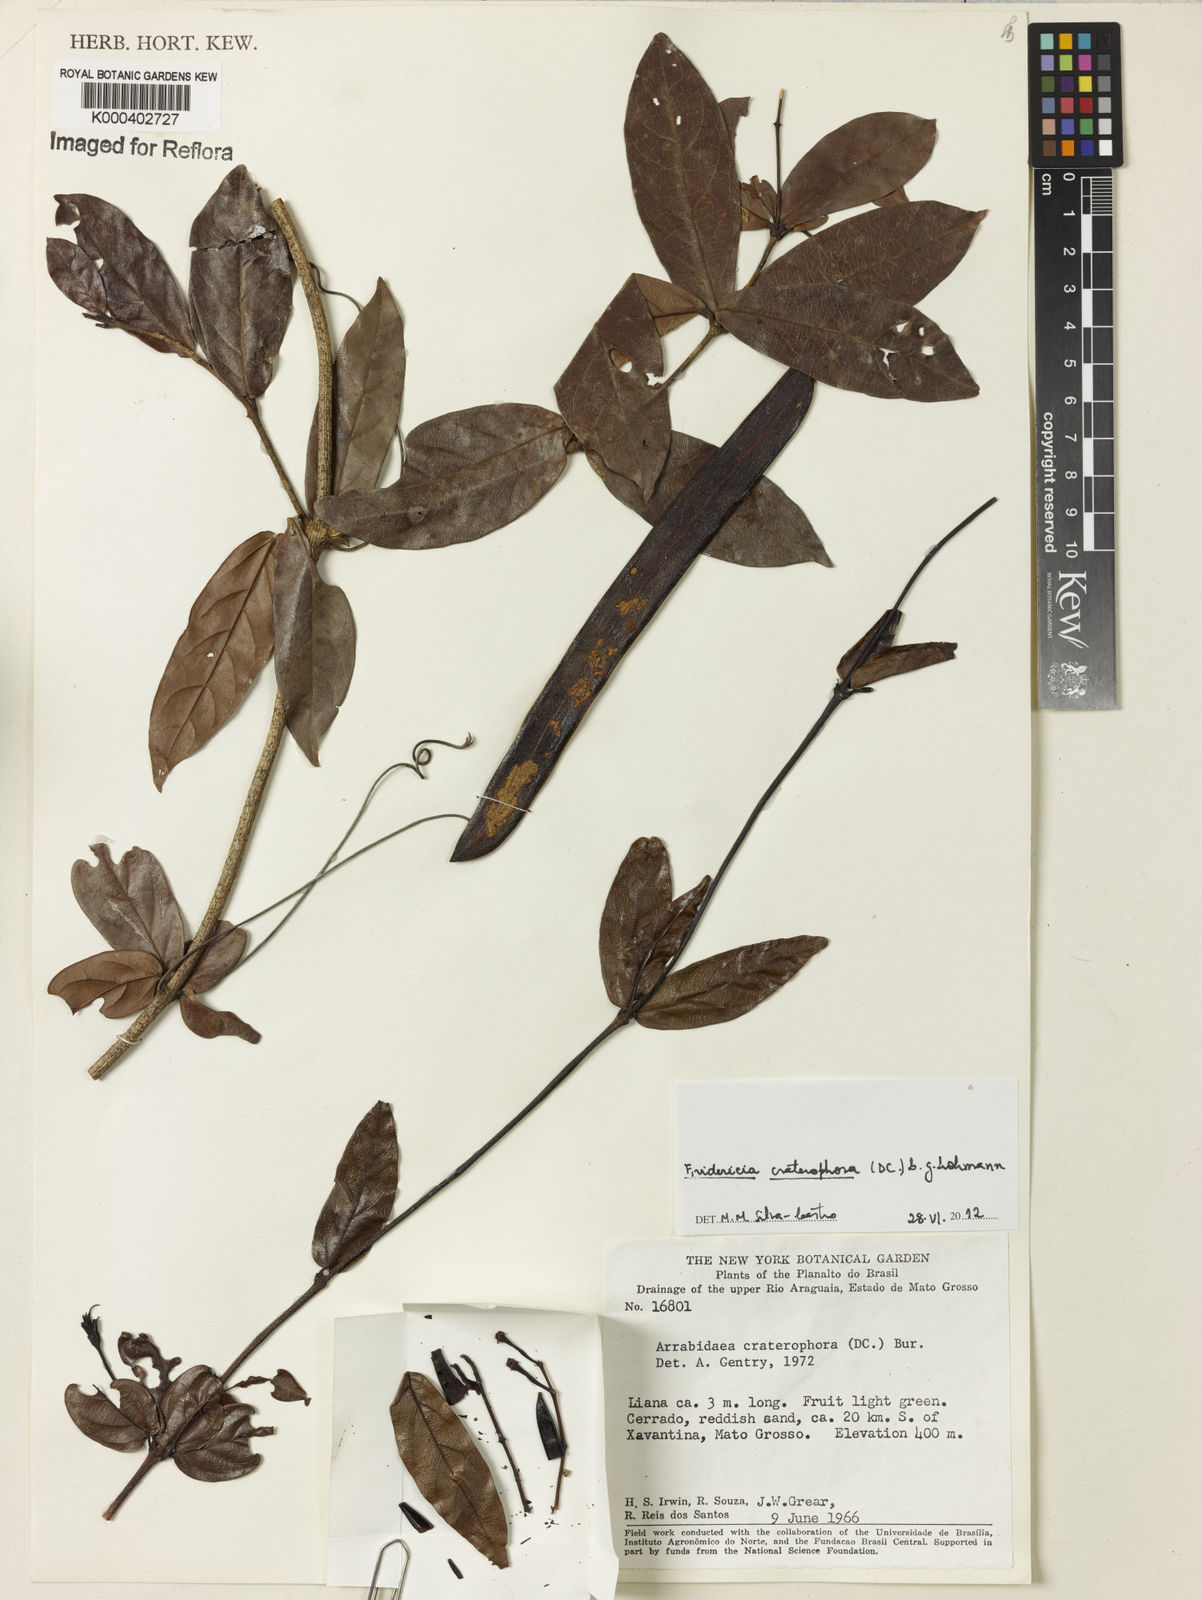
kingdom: Plantae
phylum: Tracheophyta
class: Magnoliopsida
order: Lamiales
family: Bignoniaceae
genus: Fridericia
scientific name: Fridericia craterophora
